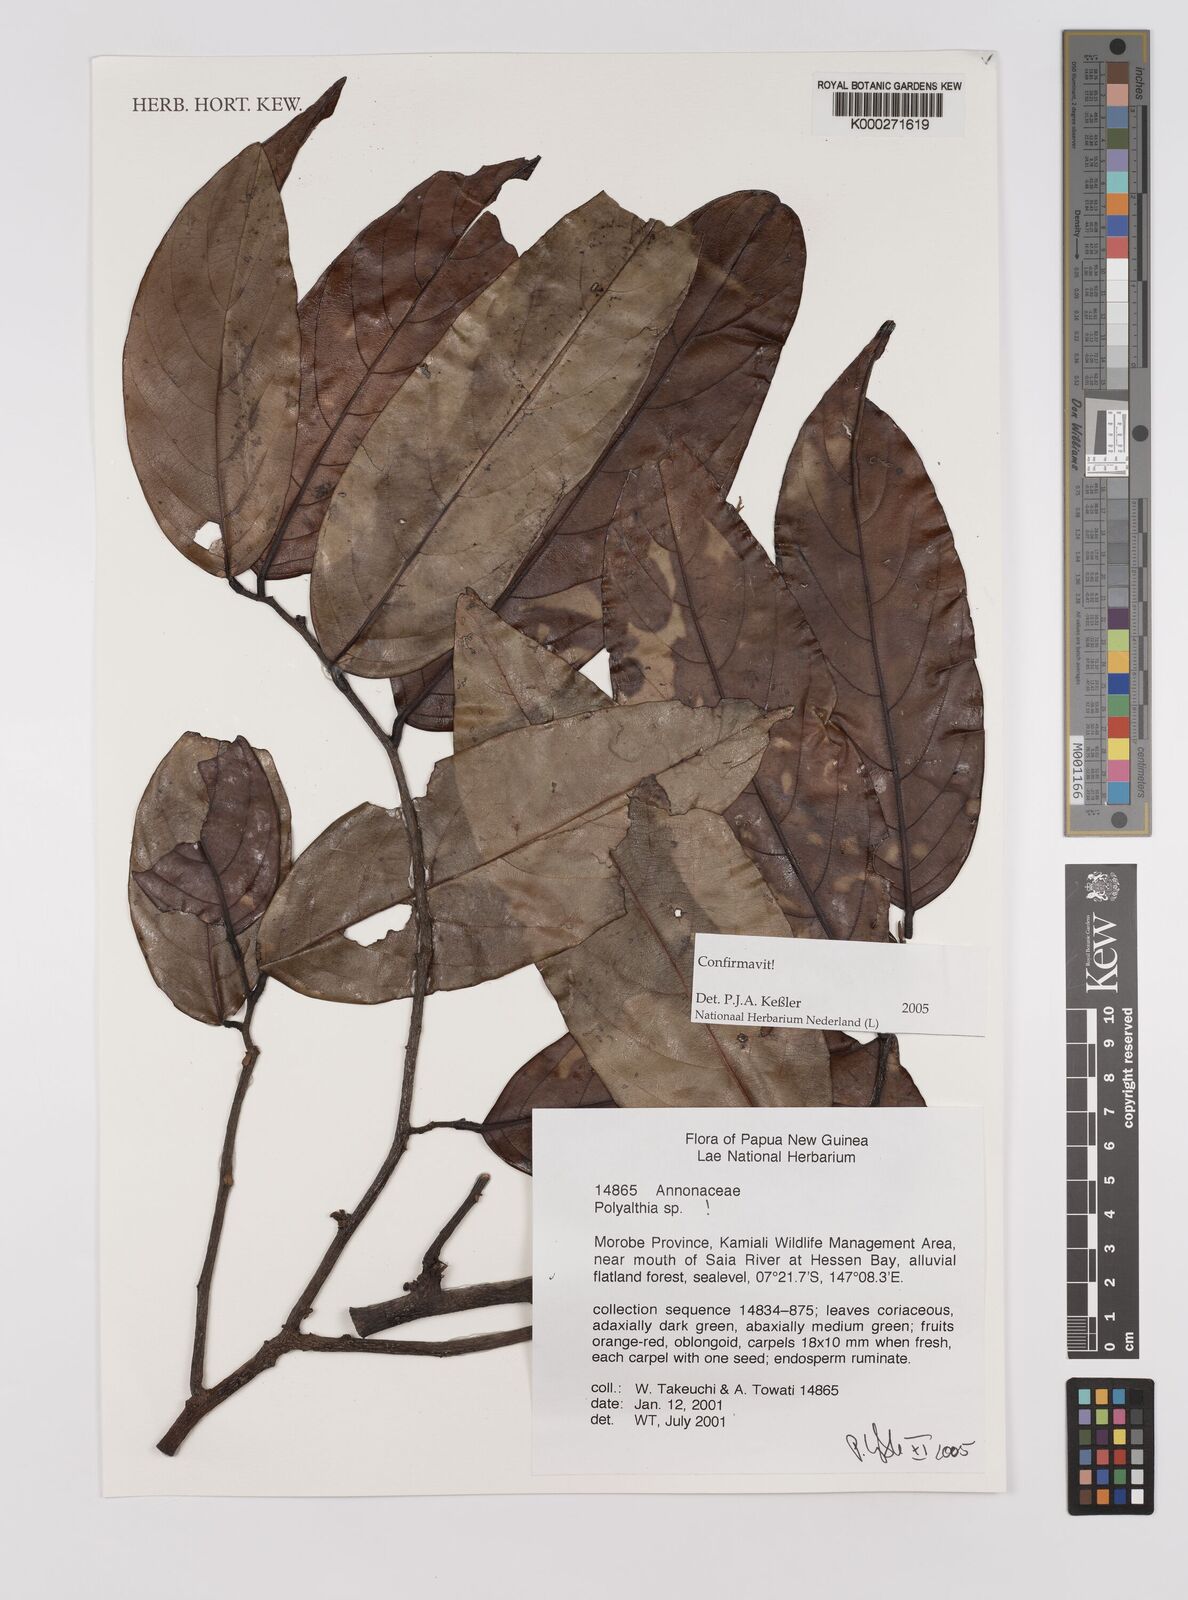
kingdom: Plantae
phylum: Tracheophyta
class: Magnoliopsida
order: Magnoliales
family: Annonaceae
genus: Polyalthia
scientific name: Polyalthia
